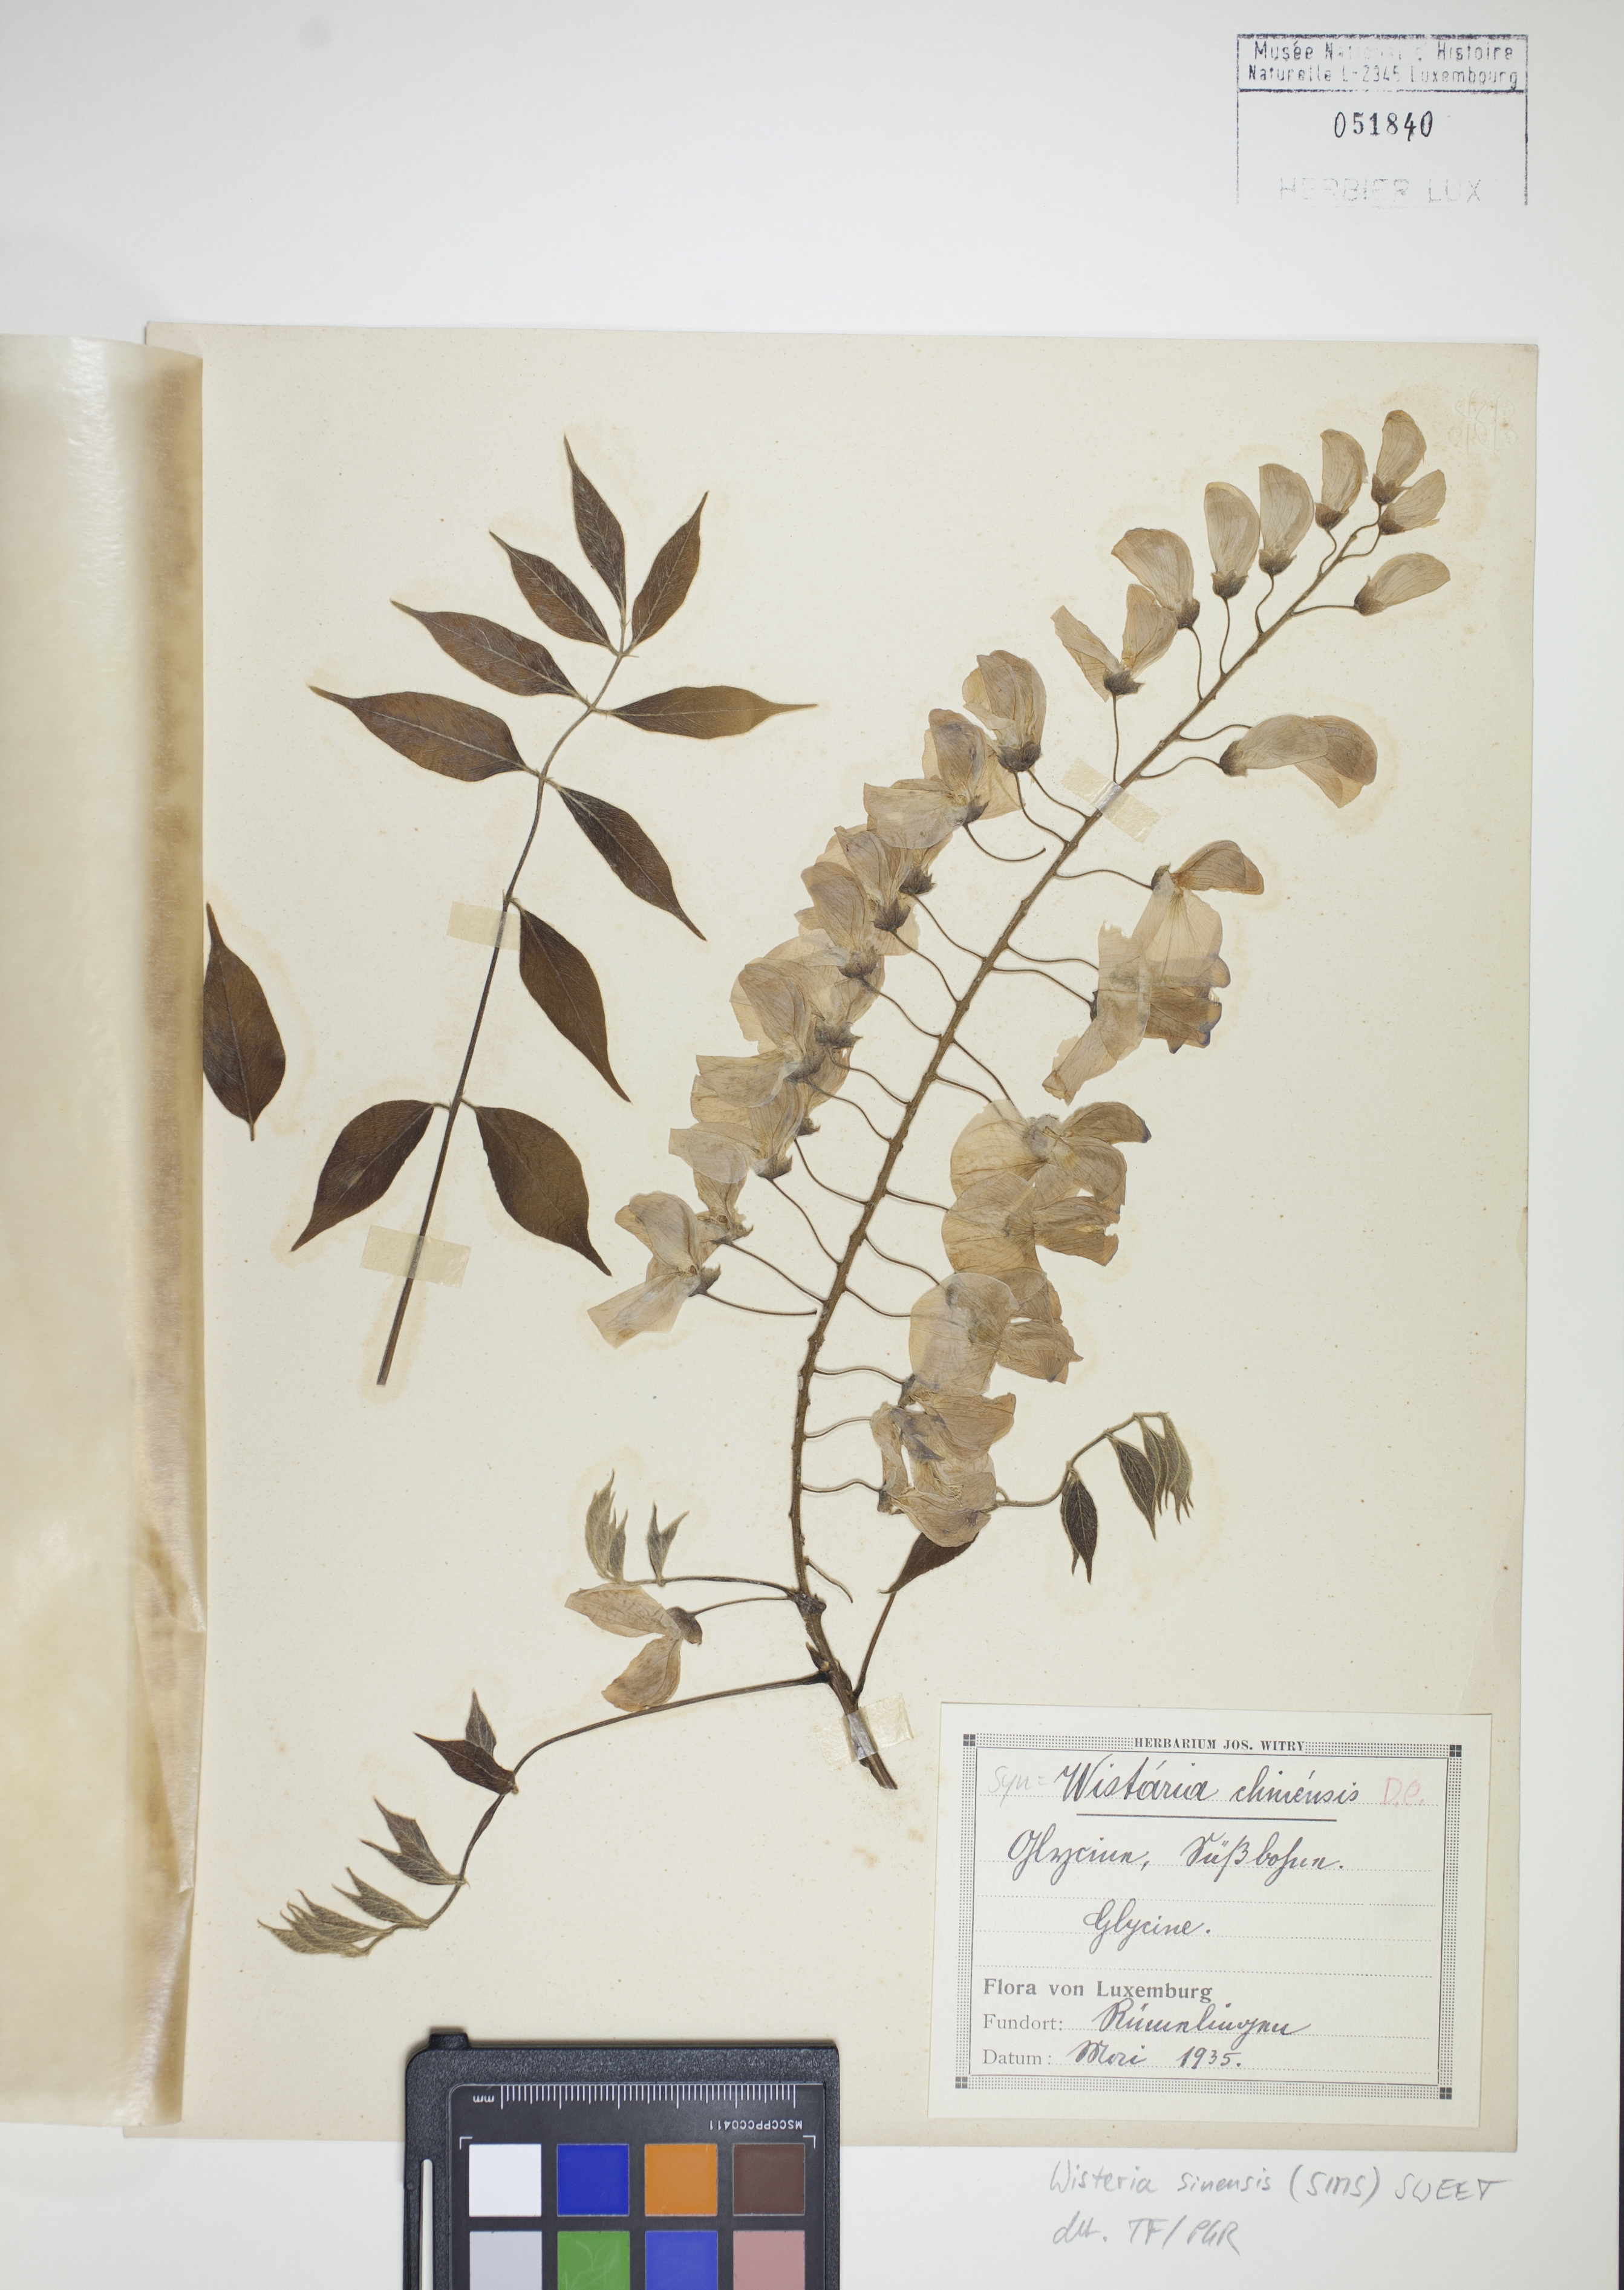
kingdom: Plantae
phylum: Tracheophyta
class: Magnoliopsida
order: Fabales
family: Fabaceae
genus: Wisteria
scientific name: Wisteria sinensis
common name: Chinese wisteria
